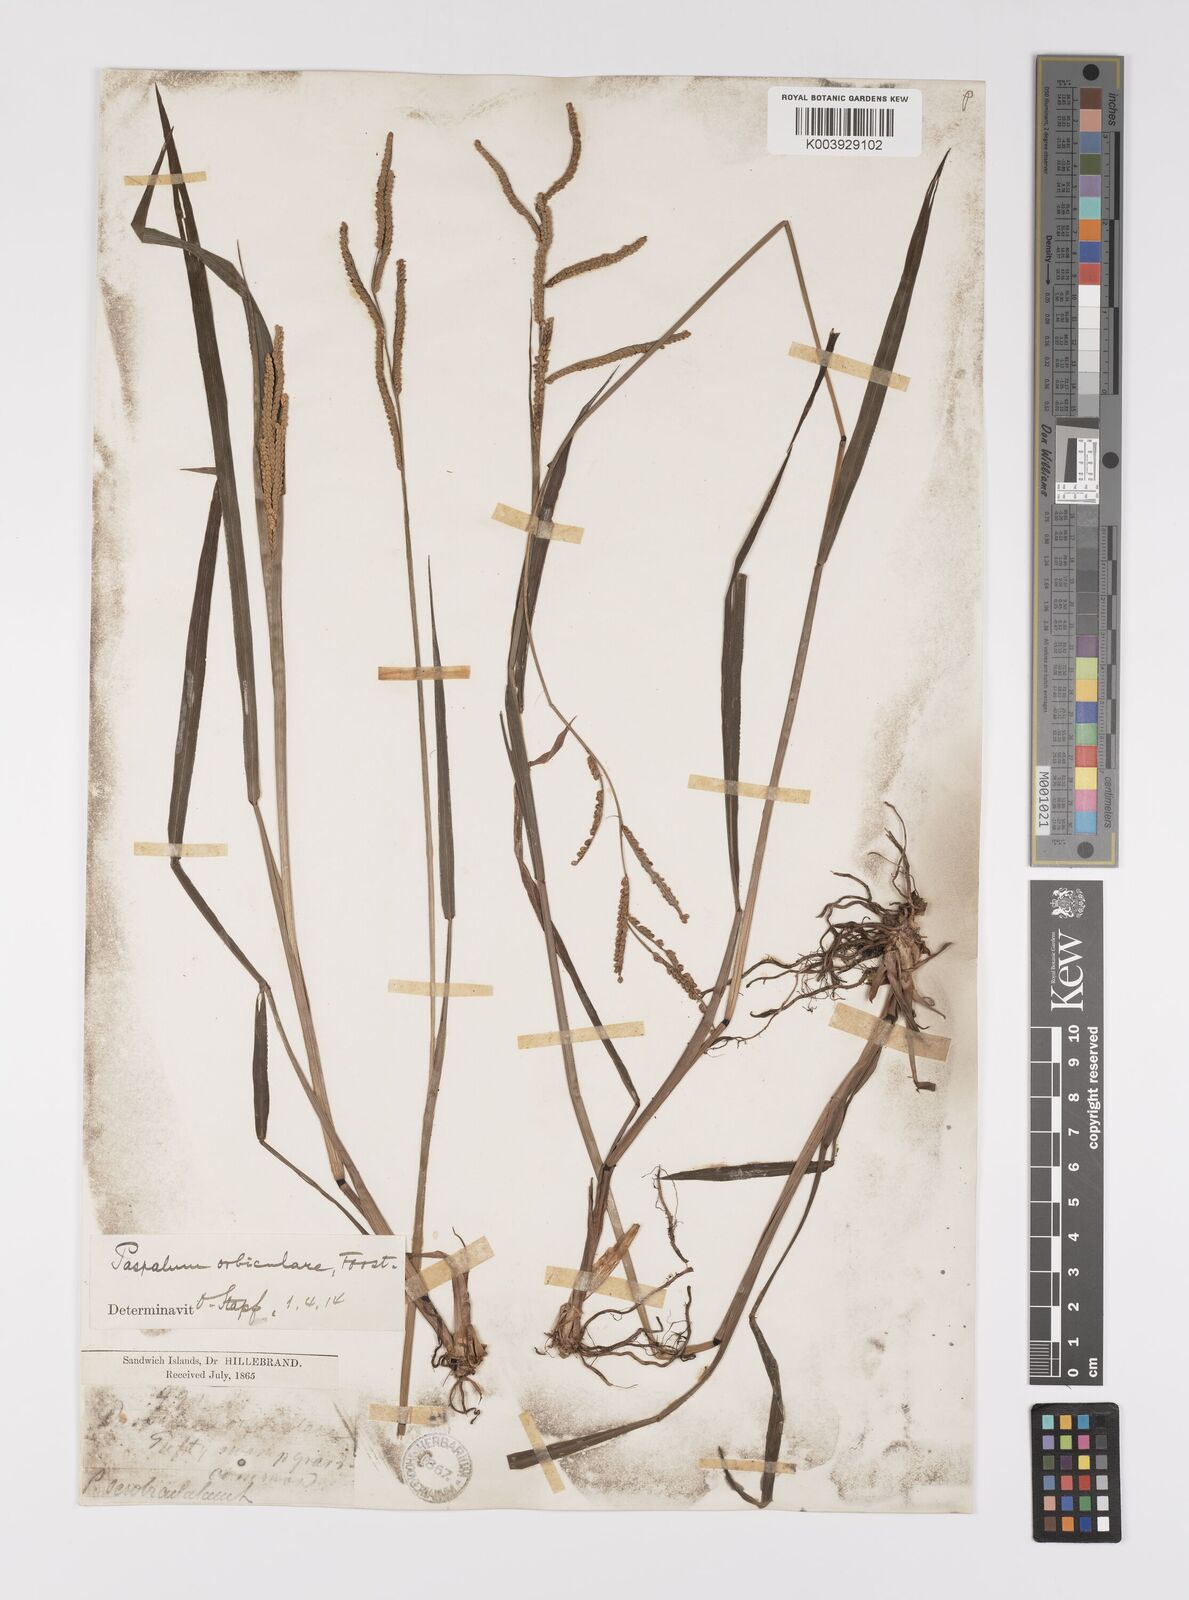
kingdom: Plantae
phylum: Tracheophyta
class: Liliopsida
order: Poales
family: Poaceae
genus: Paspalum
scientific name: Paspalum scrobiculatum
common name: Kodo millet
